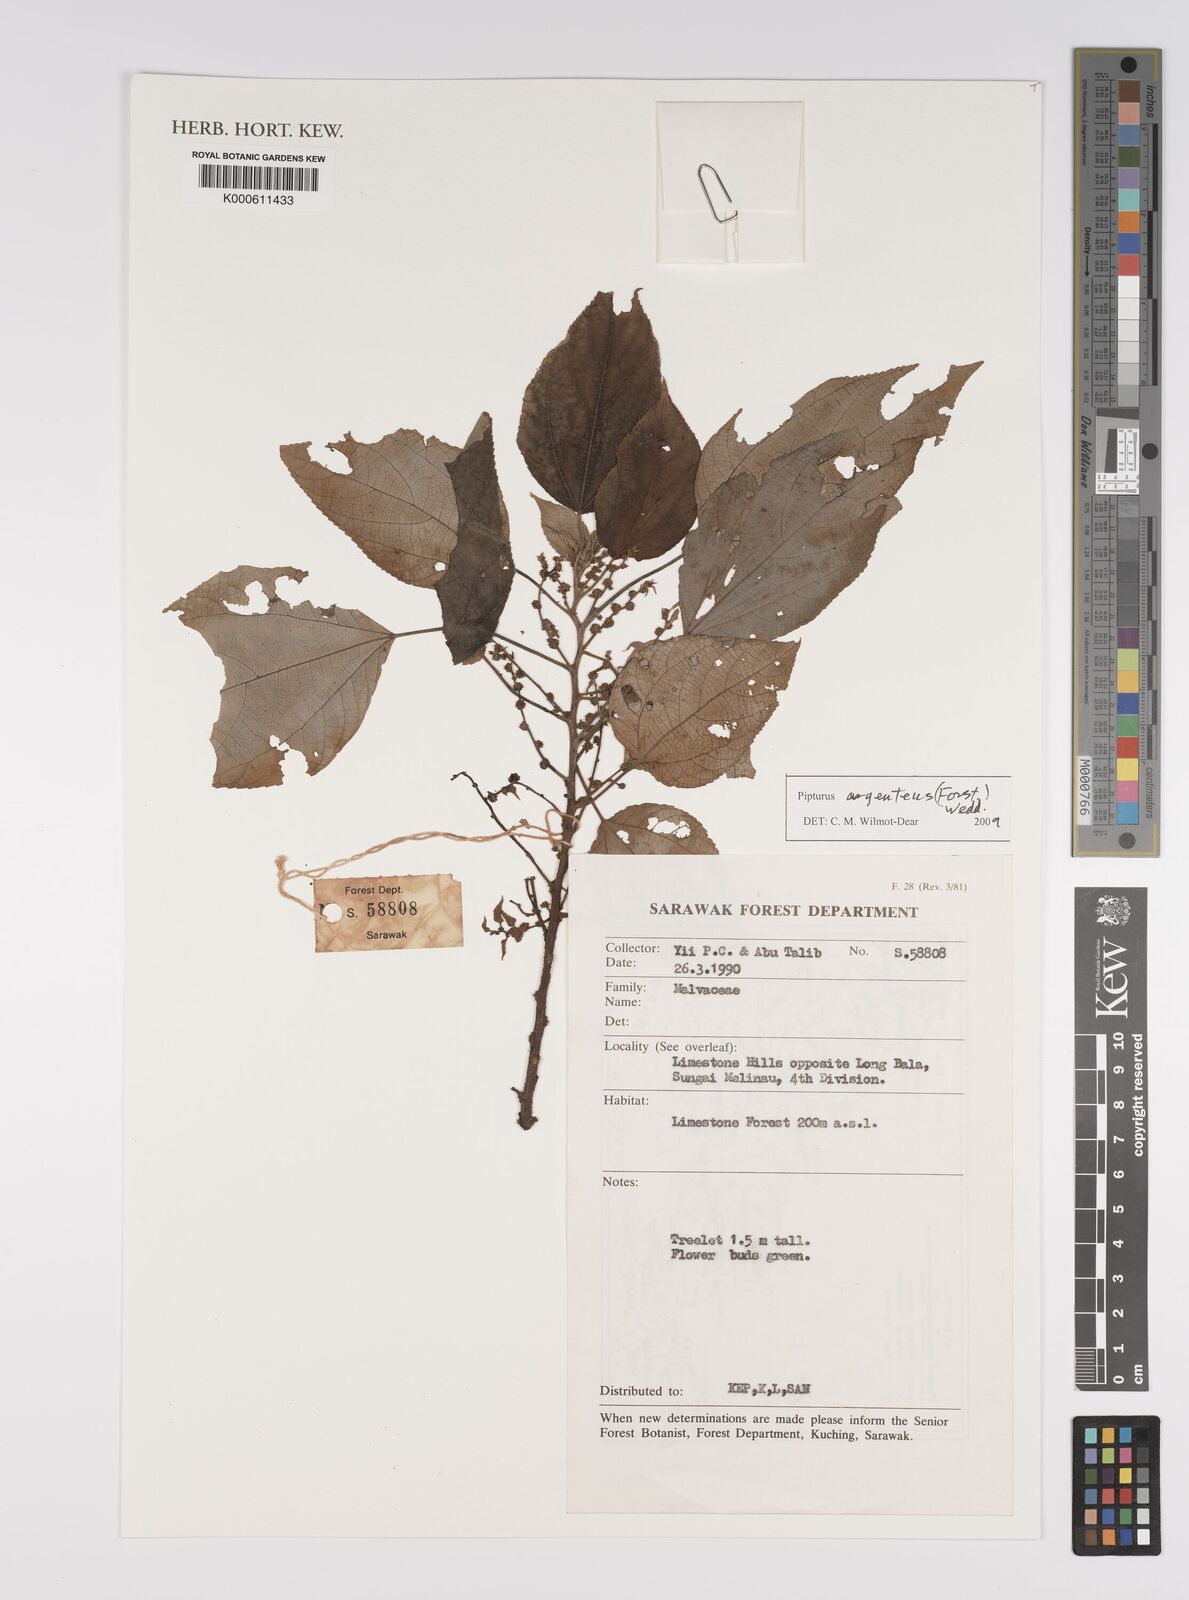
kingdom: Plantae
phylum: Tracheophyta
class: Magnoliopsida
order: Rosales
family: Urticaceae
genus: Pilea
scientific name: Pilea
